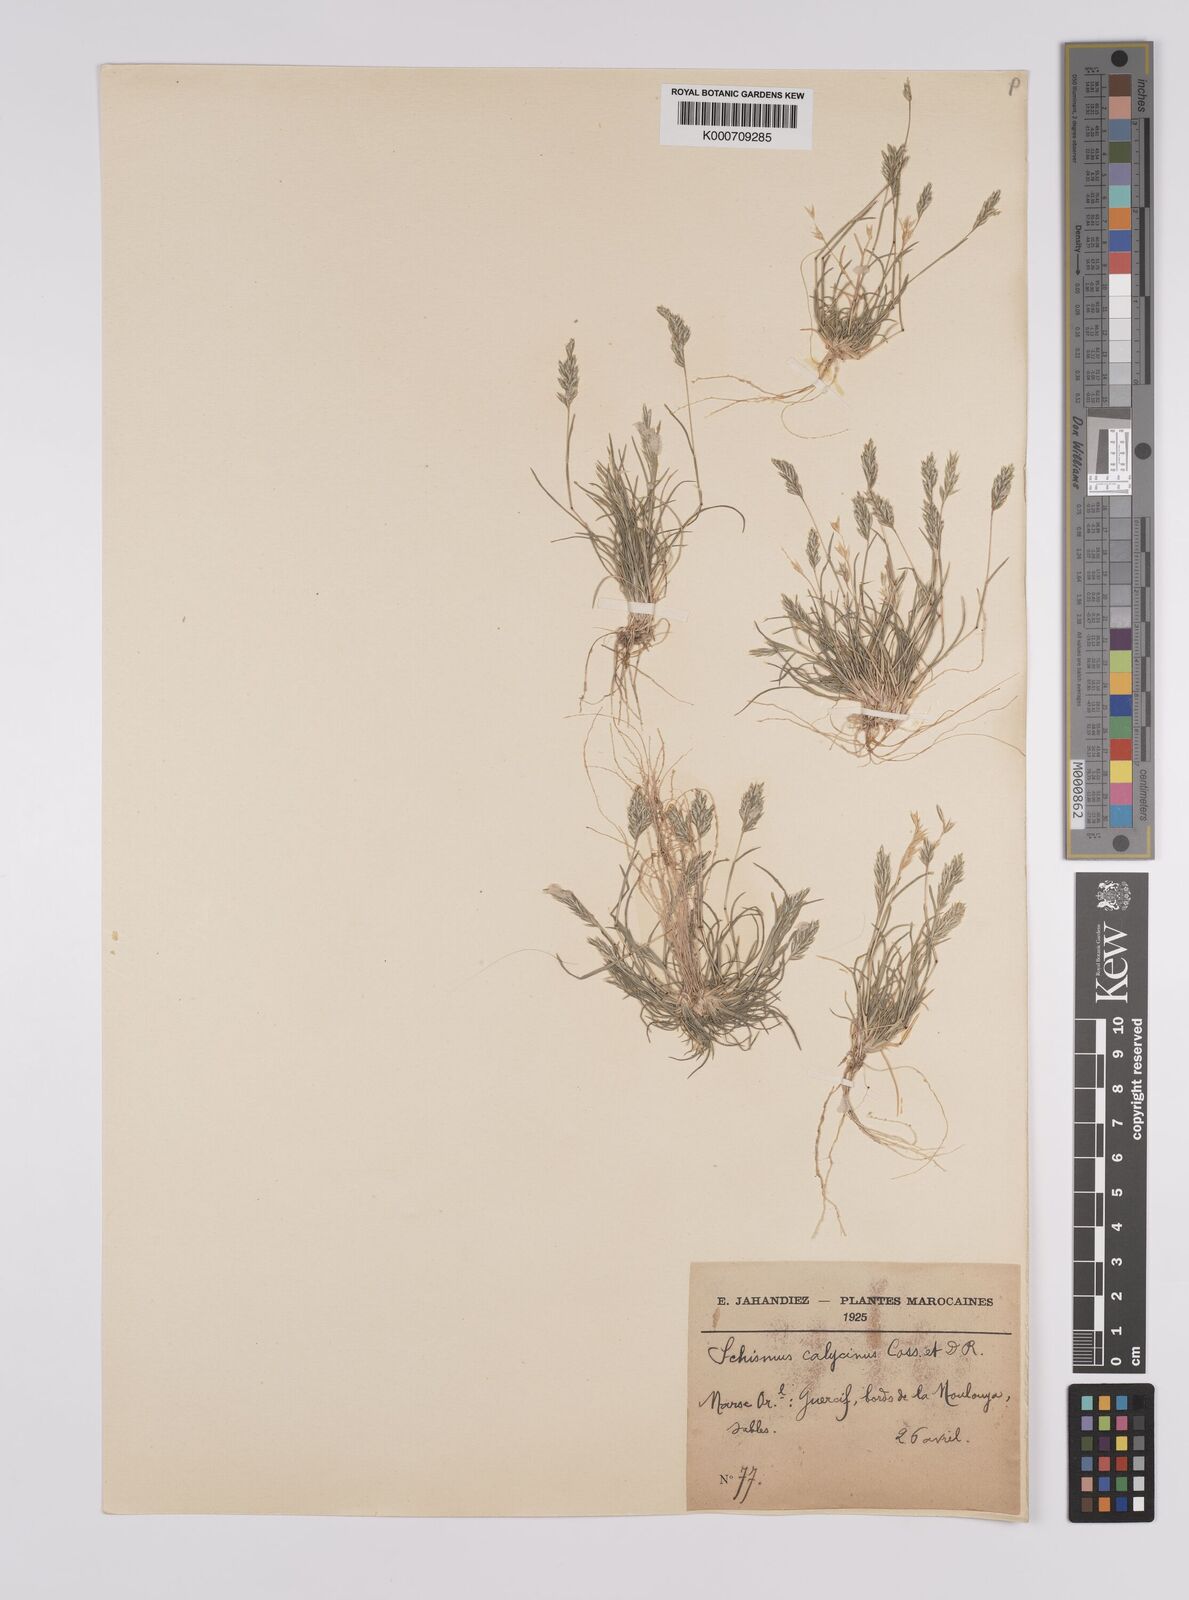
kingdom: Plantae
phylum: Tracheophyta
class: Liliopsida
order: Poales
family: Poaceae
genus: Schismus
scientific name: Schismus barbatus
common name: Kelch-grass
